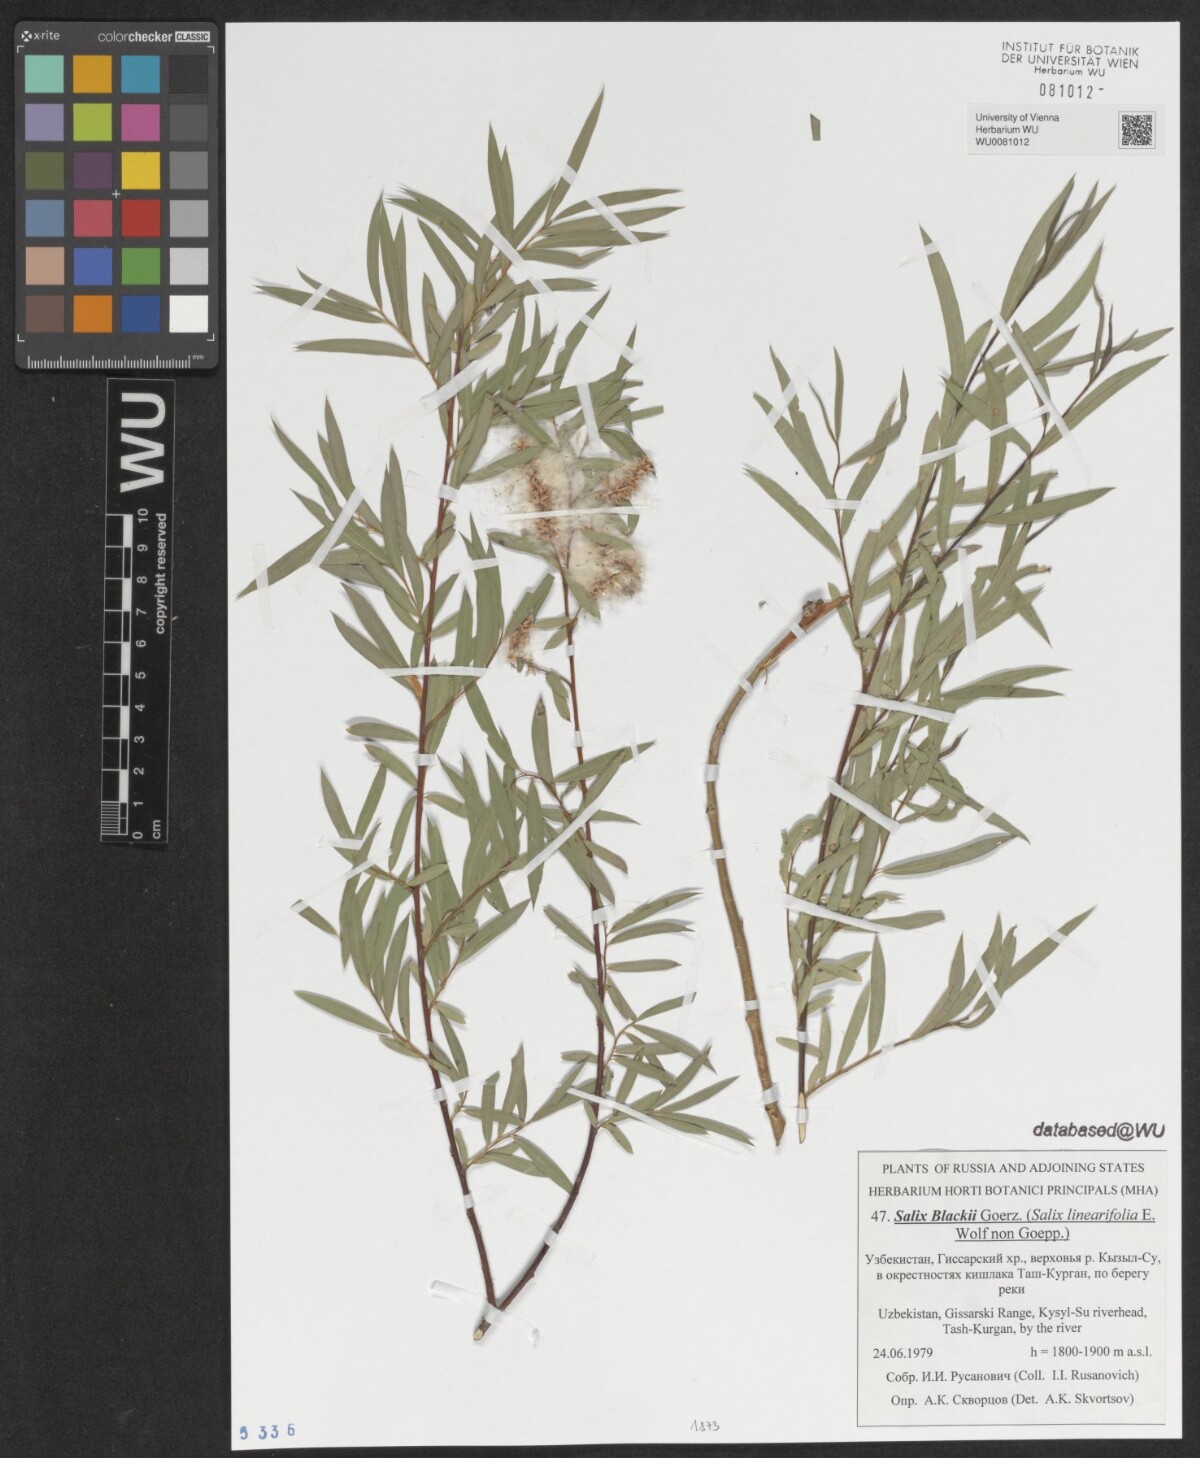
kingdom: Plantae
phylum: Tracheophyta
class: Magnoliopsida
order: Malpighiales
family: Salicaceae
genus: Salix
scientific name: Salix blakii
